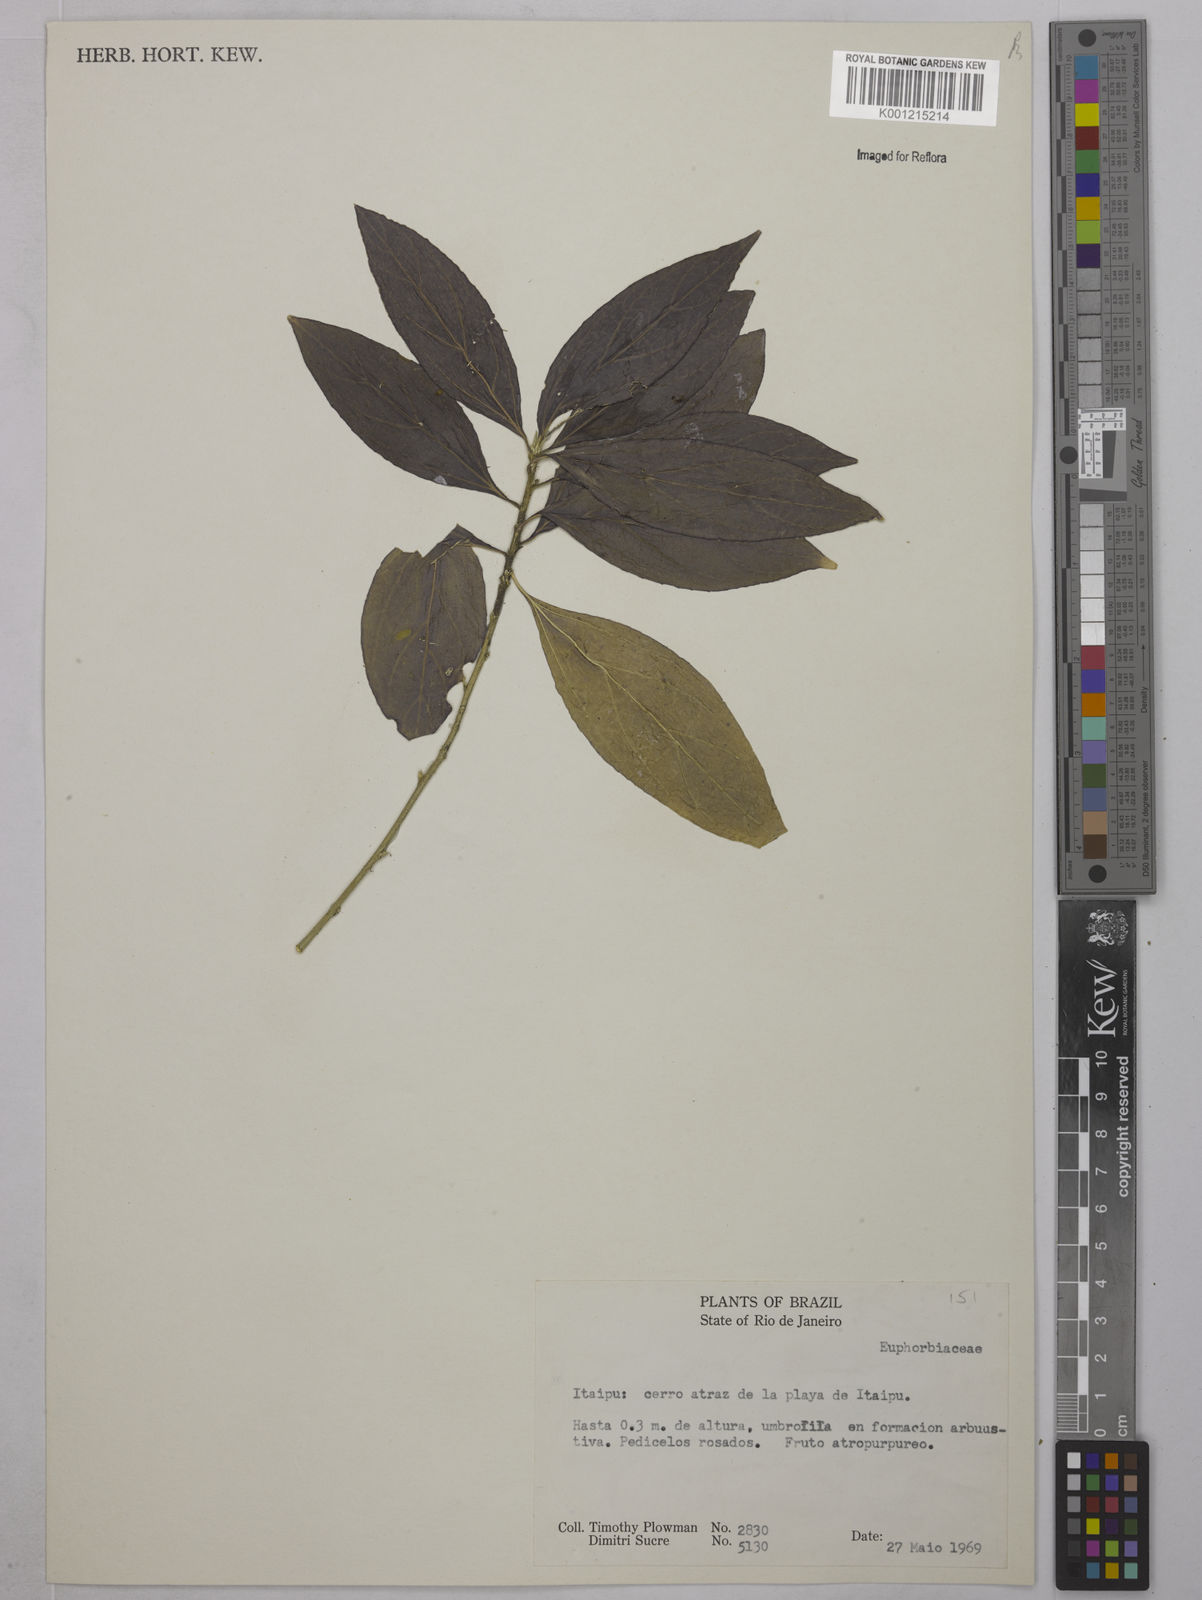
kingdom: Plantae
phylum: Tracheophyta
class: Magnoliopsida
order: Malpighiales
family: Euphorbiaceae
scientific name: Euphorbiaceae
